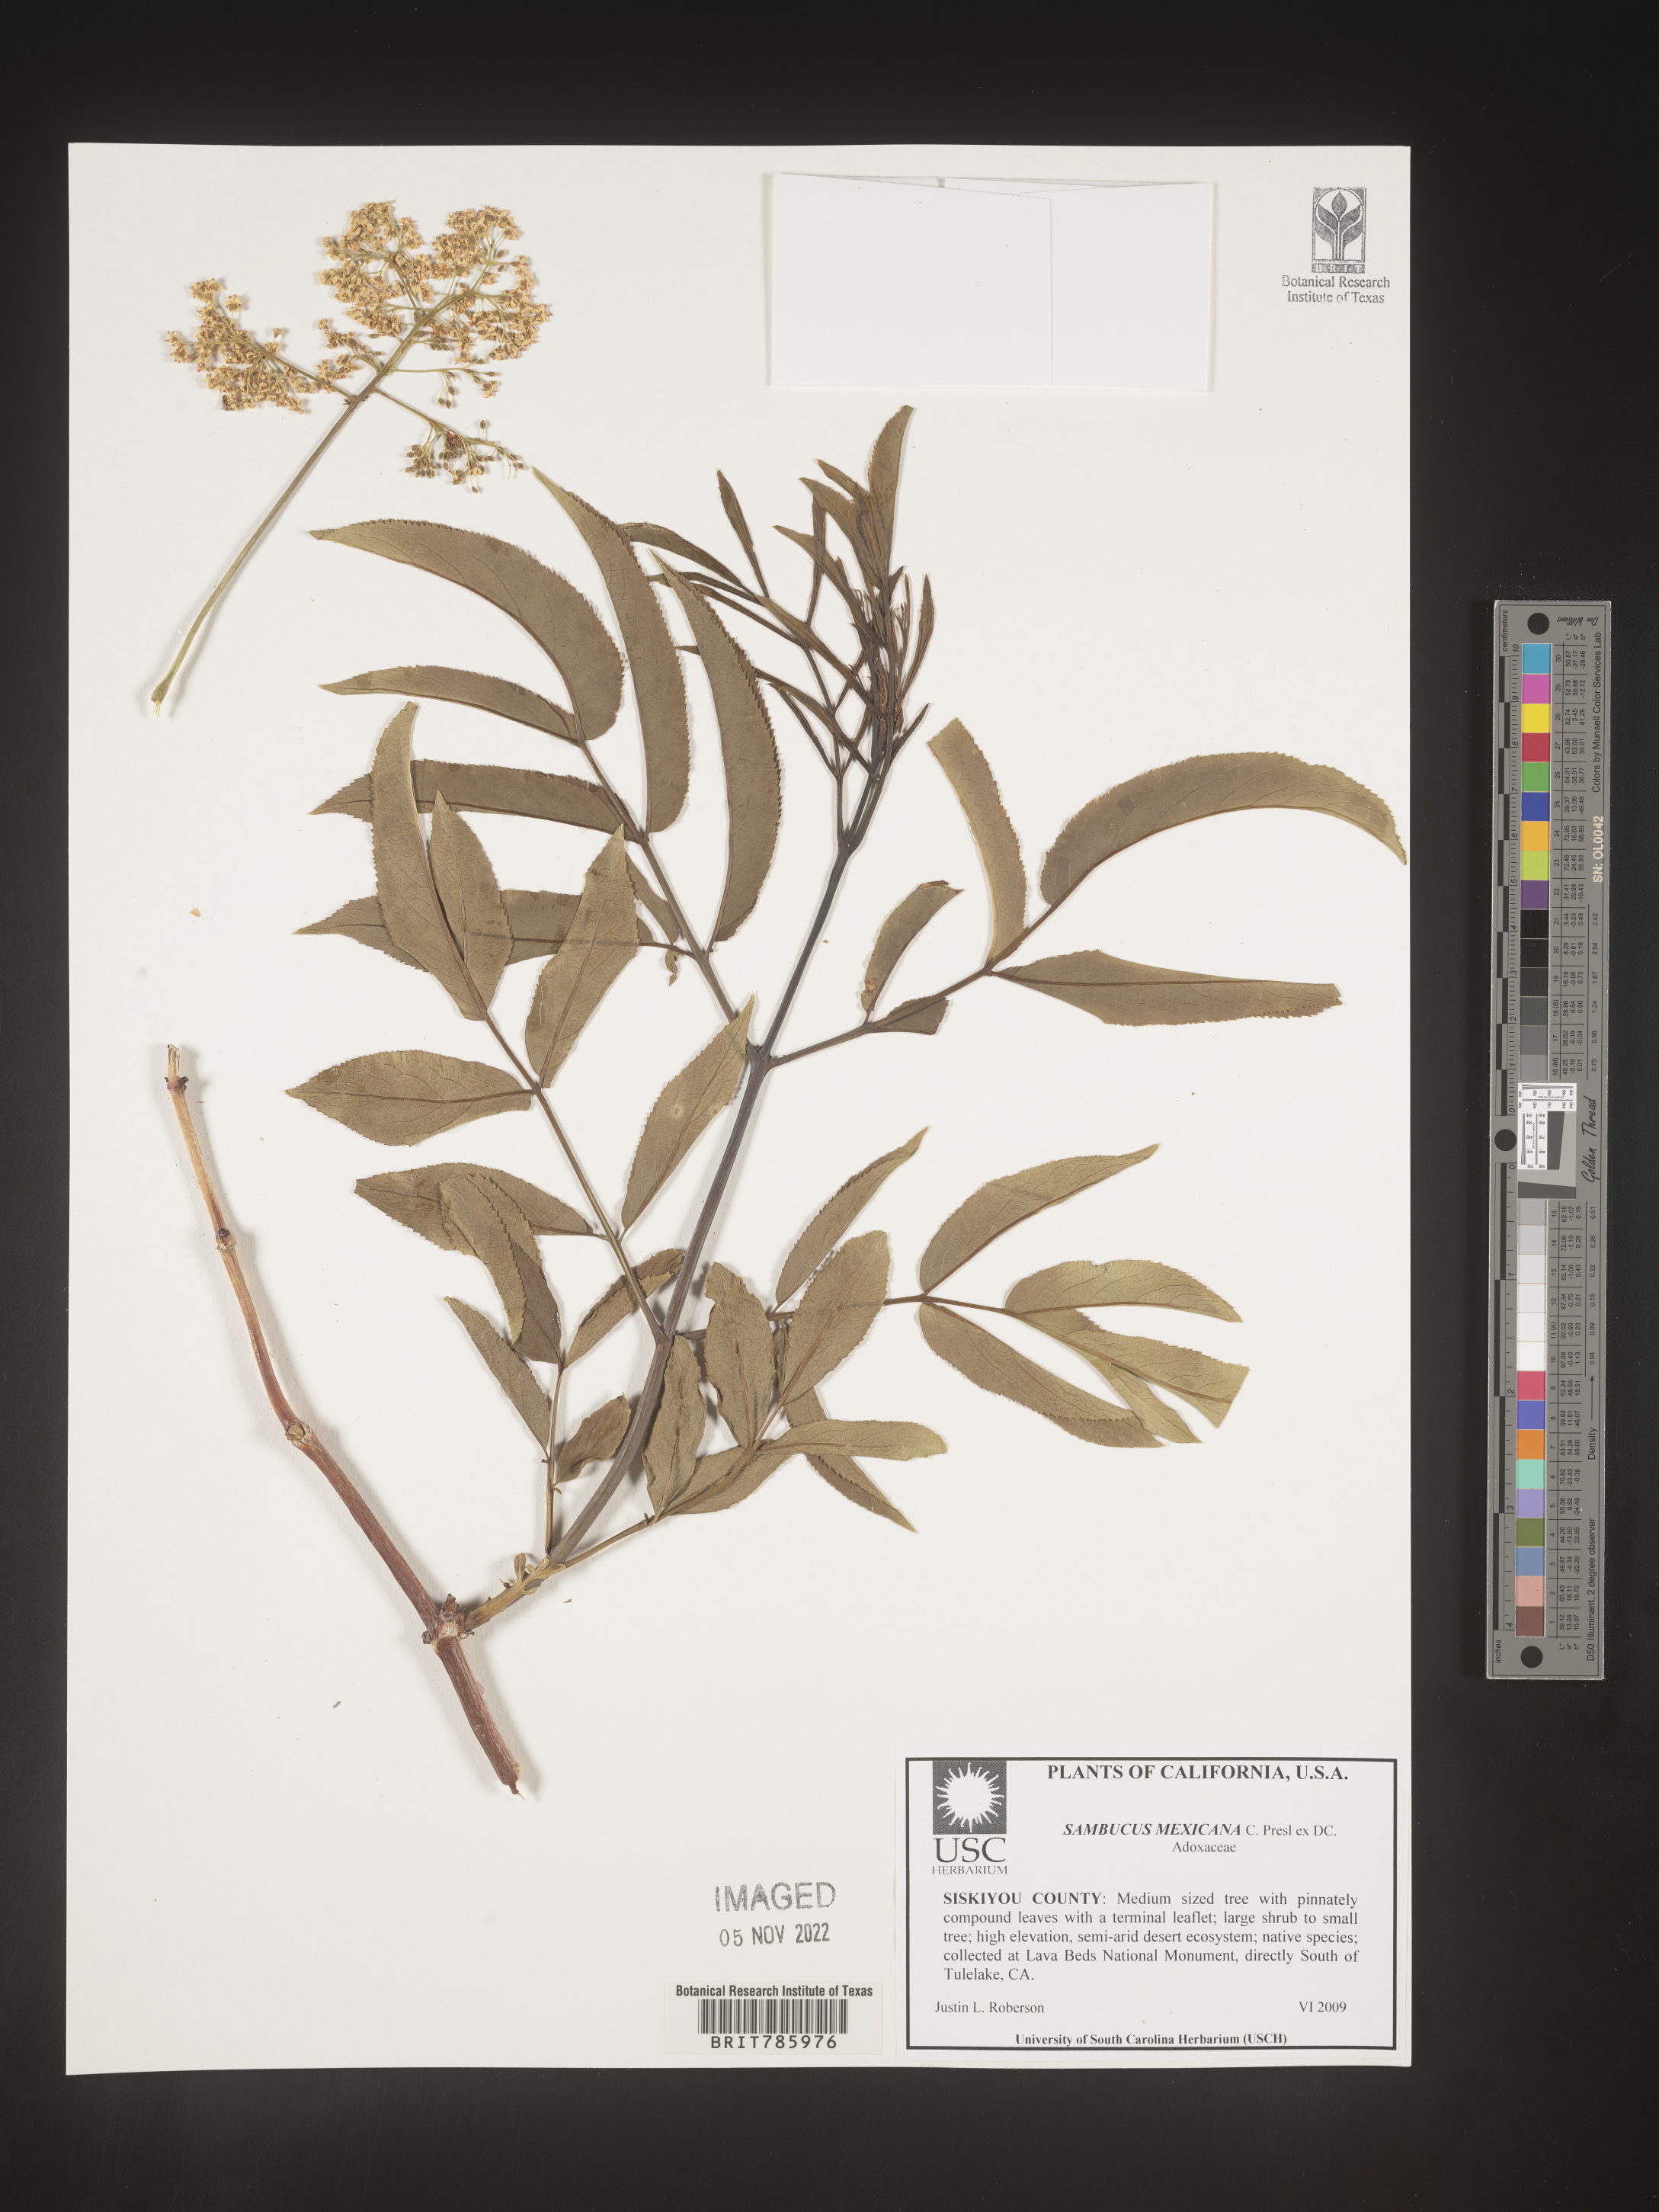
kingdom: Plantae
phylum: Tracheophyta
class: Magnoliopsida
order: Dipsacales
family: Viburnaceae
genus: Sambucus
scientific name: Sambucus mexicana
